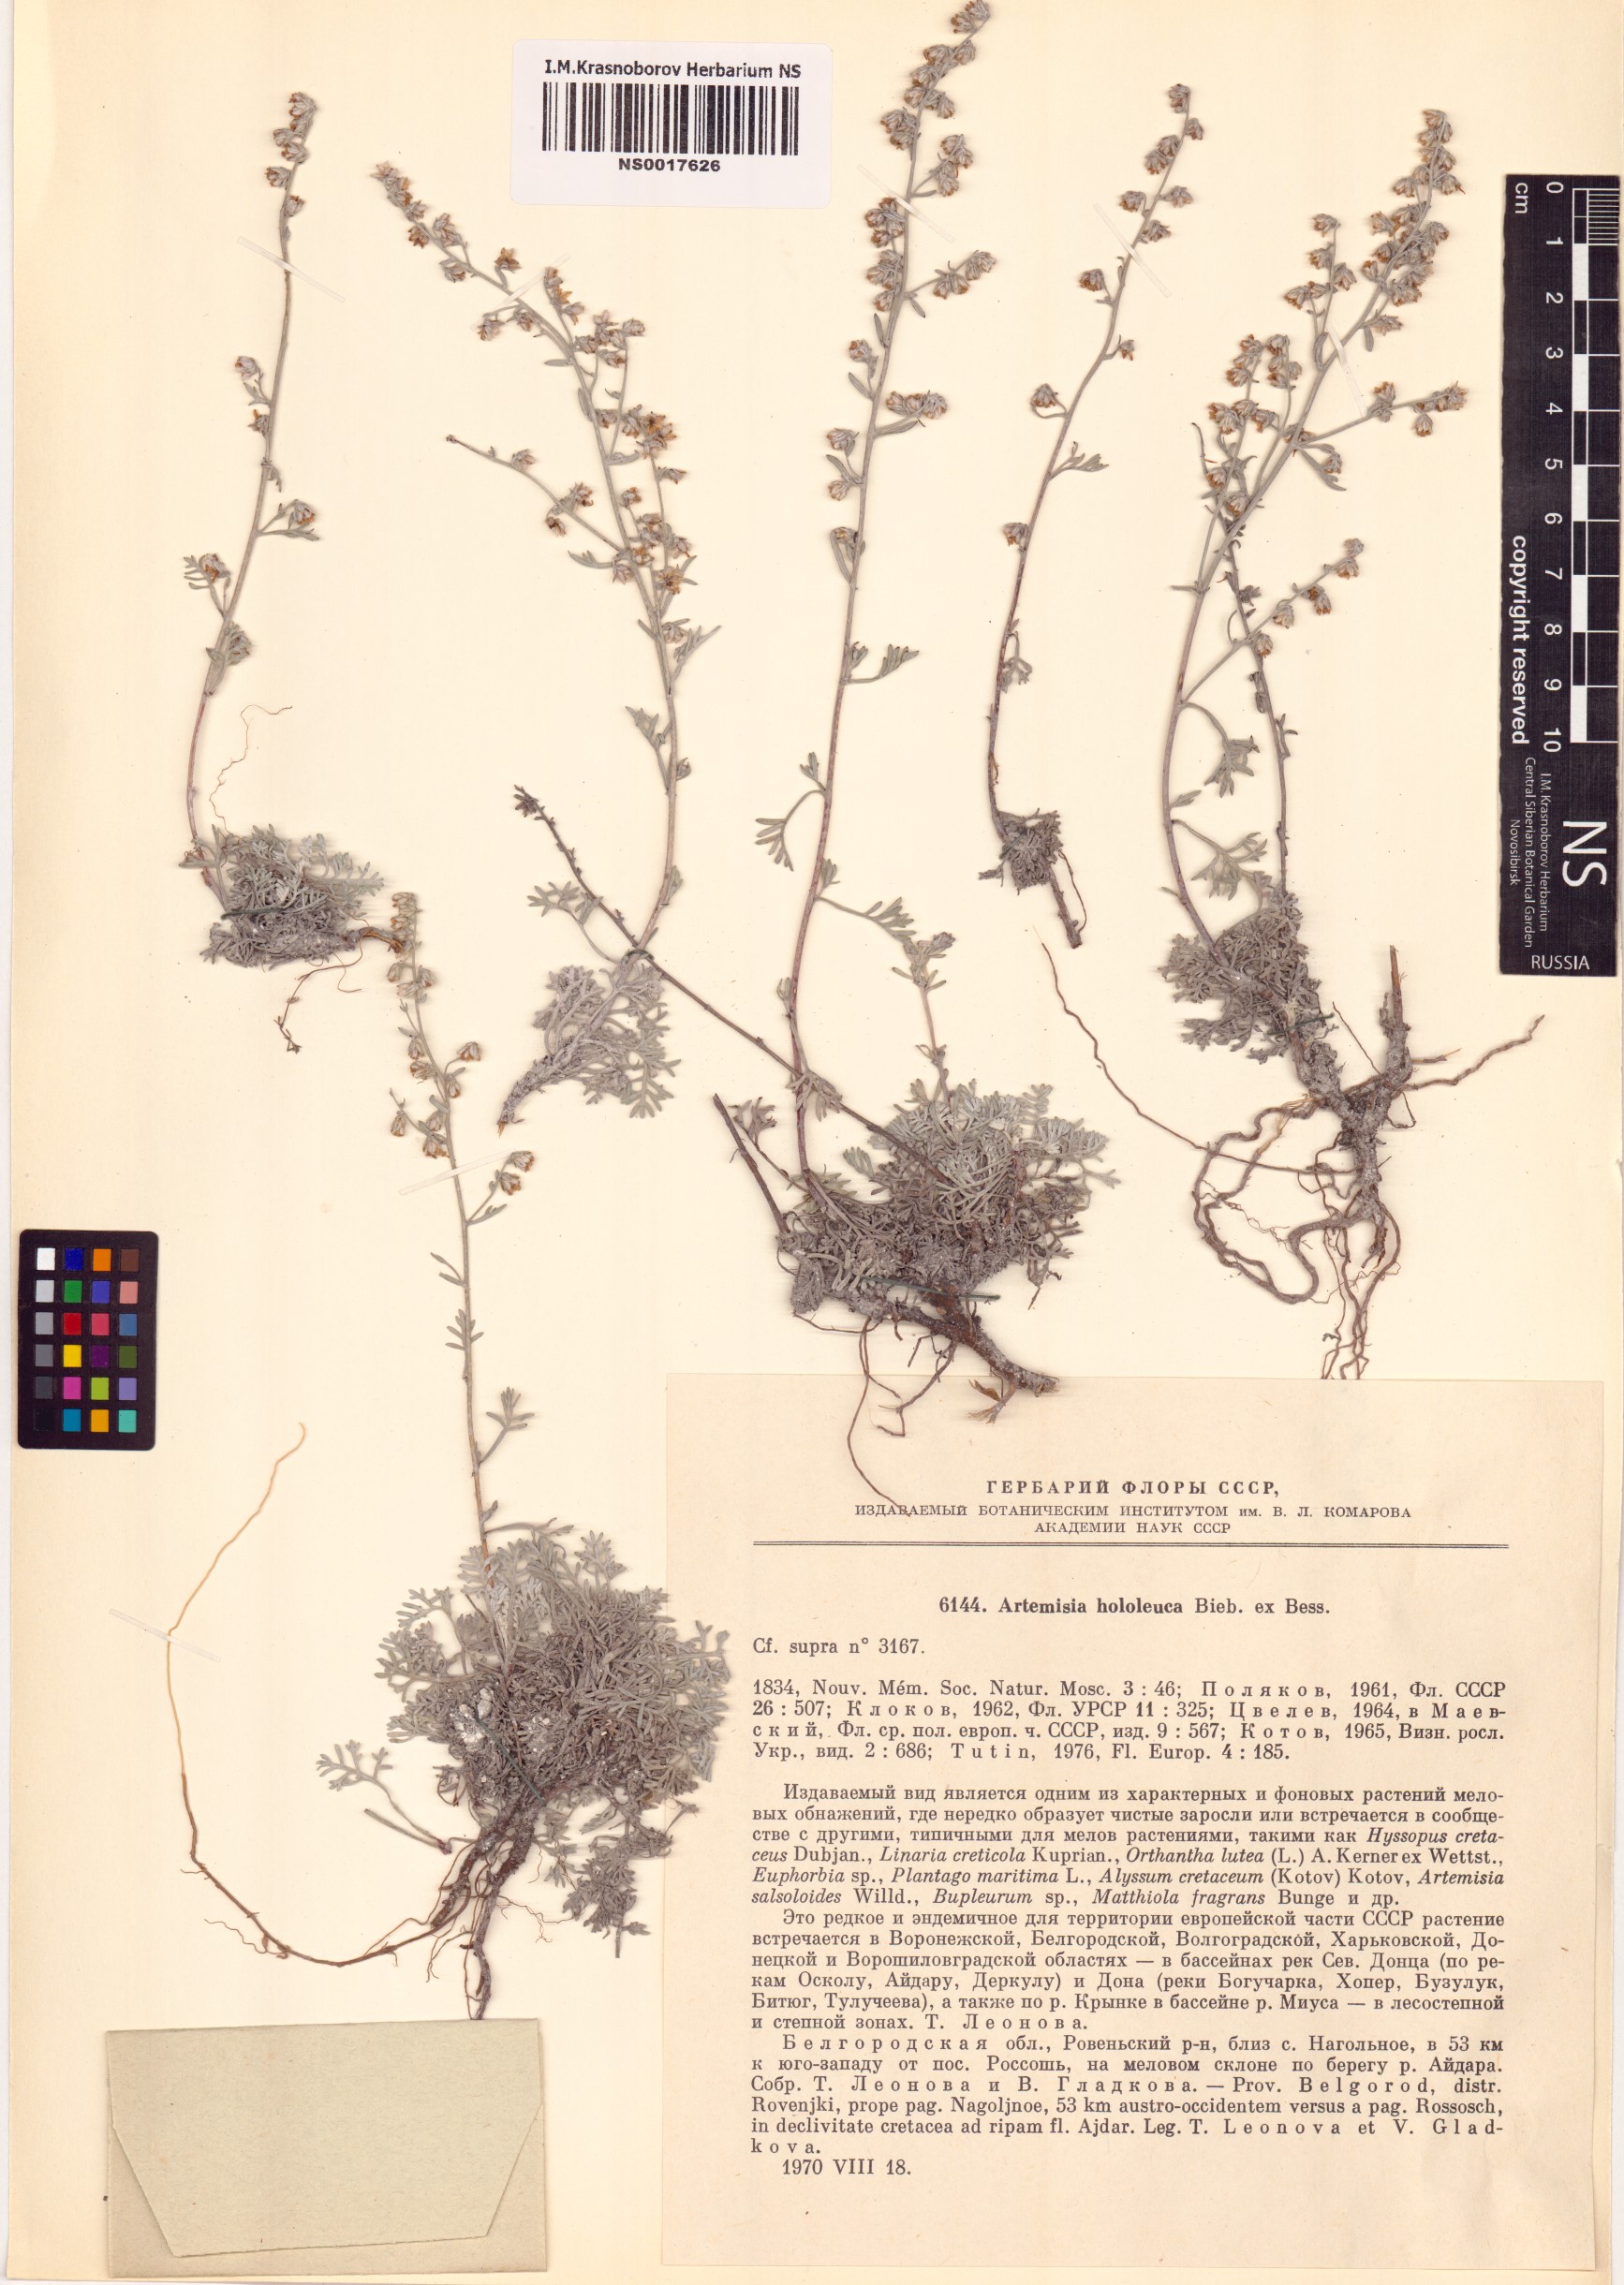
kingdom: Plantae
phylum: Tracheophyta
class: Magnoliopsida
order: Asterales
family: Asteraceae
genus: Artemisia
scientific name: Artemisia hololeuca
